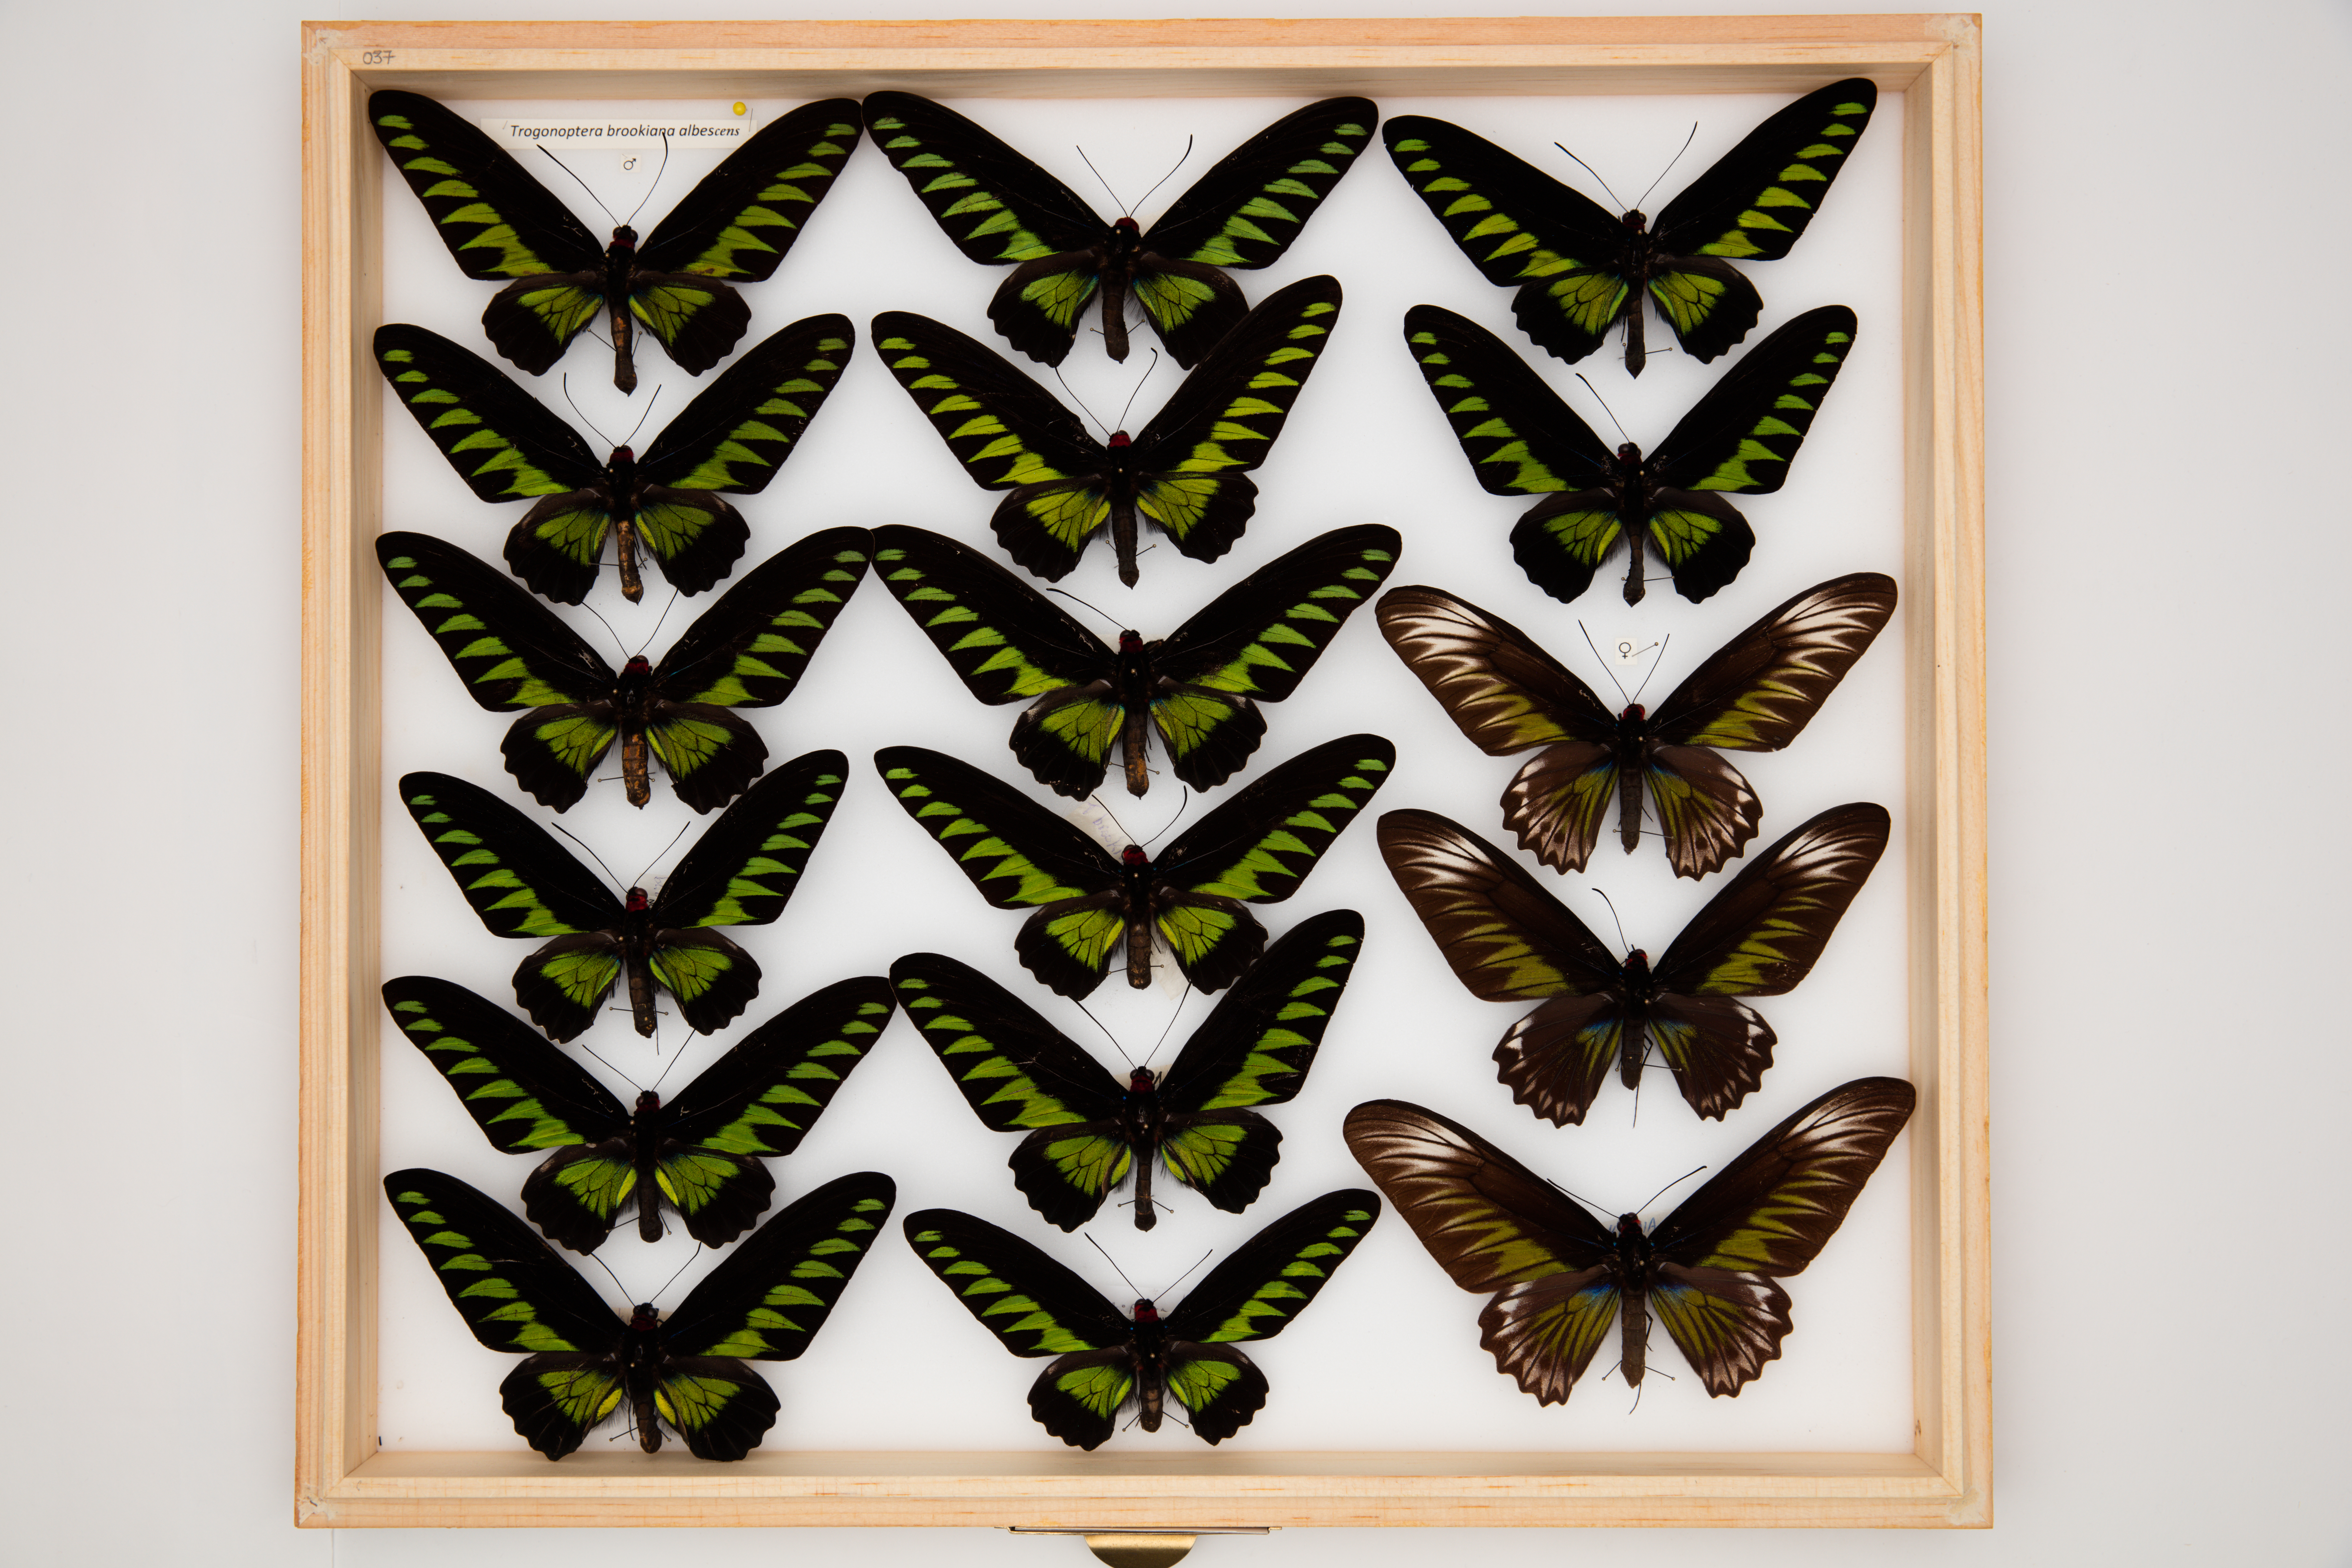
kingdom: Animalia
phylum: Arthropoda
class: Insecta
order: Lepidoptera
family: Papilionidae
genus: Trogonoptera
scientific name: Trogonoptera brookiana
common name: Raja brooke's birdwing
